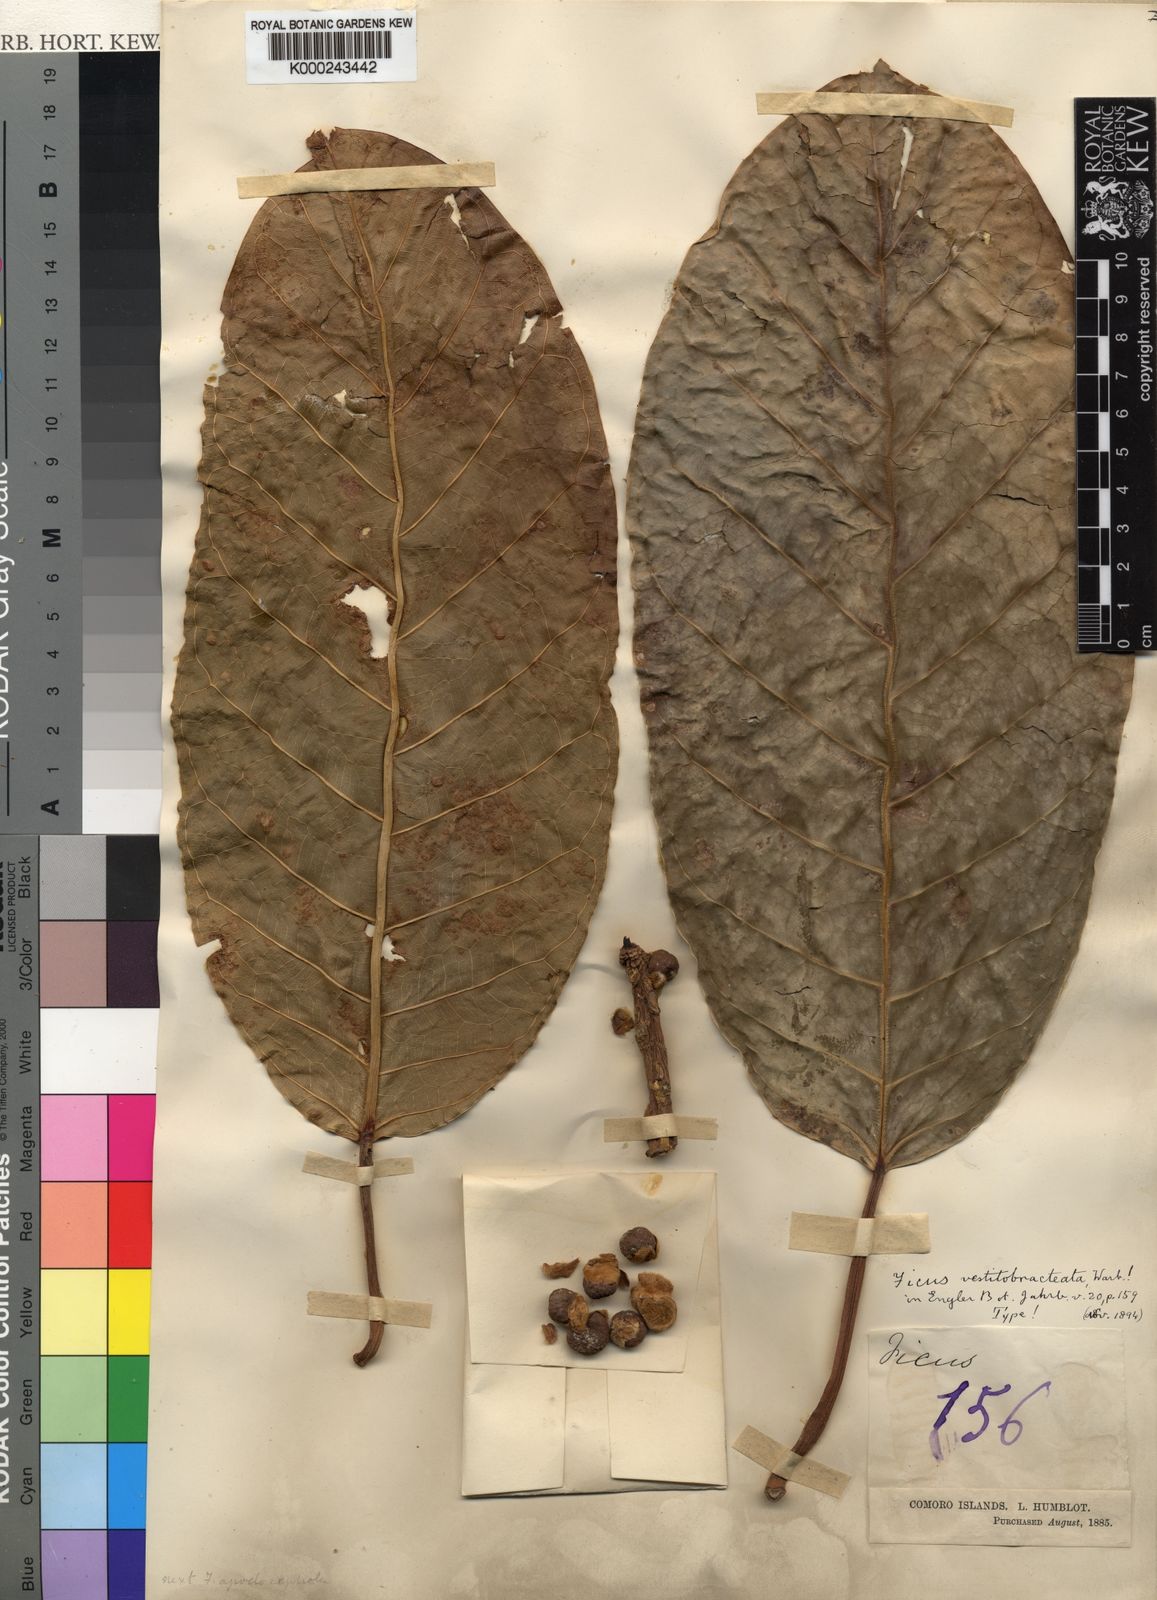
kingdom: Plantae
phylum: Tracheophyta
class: Magnoliopsida
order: Rosales
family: Moraceae
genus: Ficus
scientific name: Ficus lutea
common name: Giant-leaved fig
